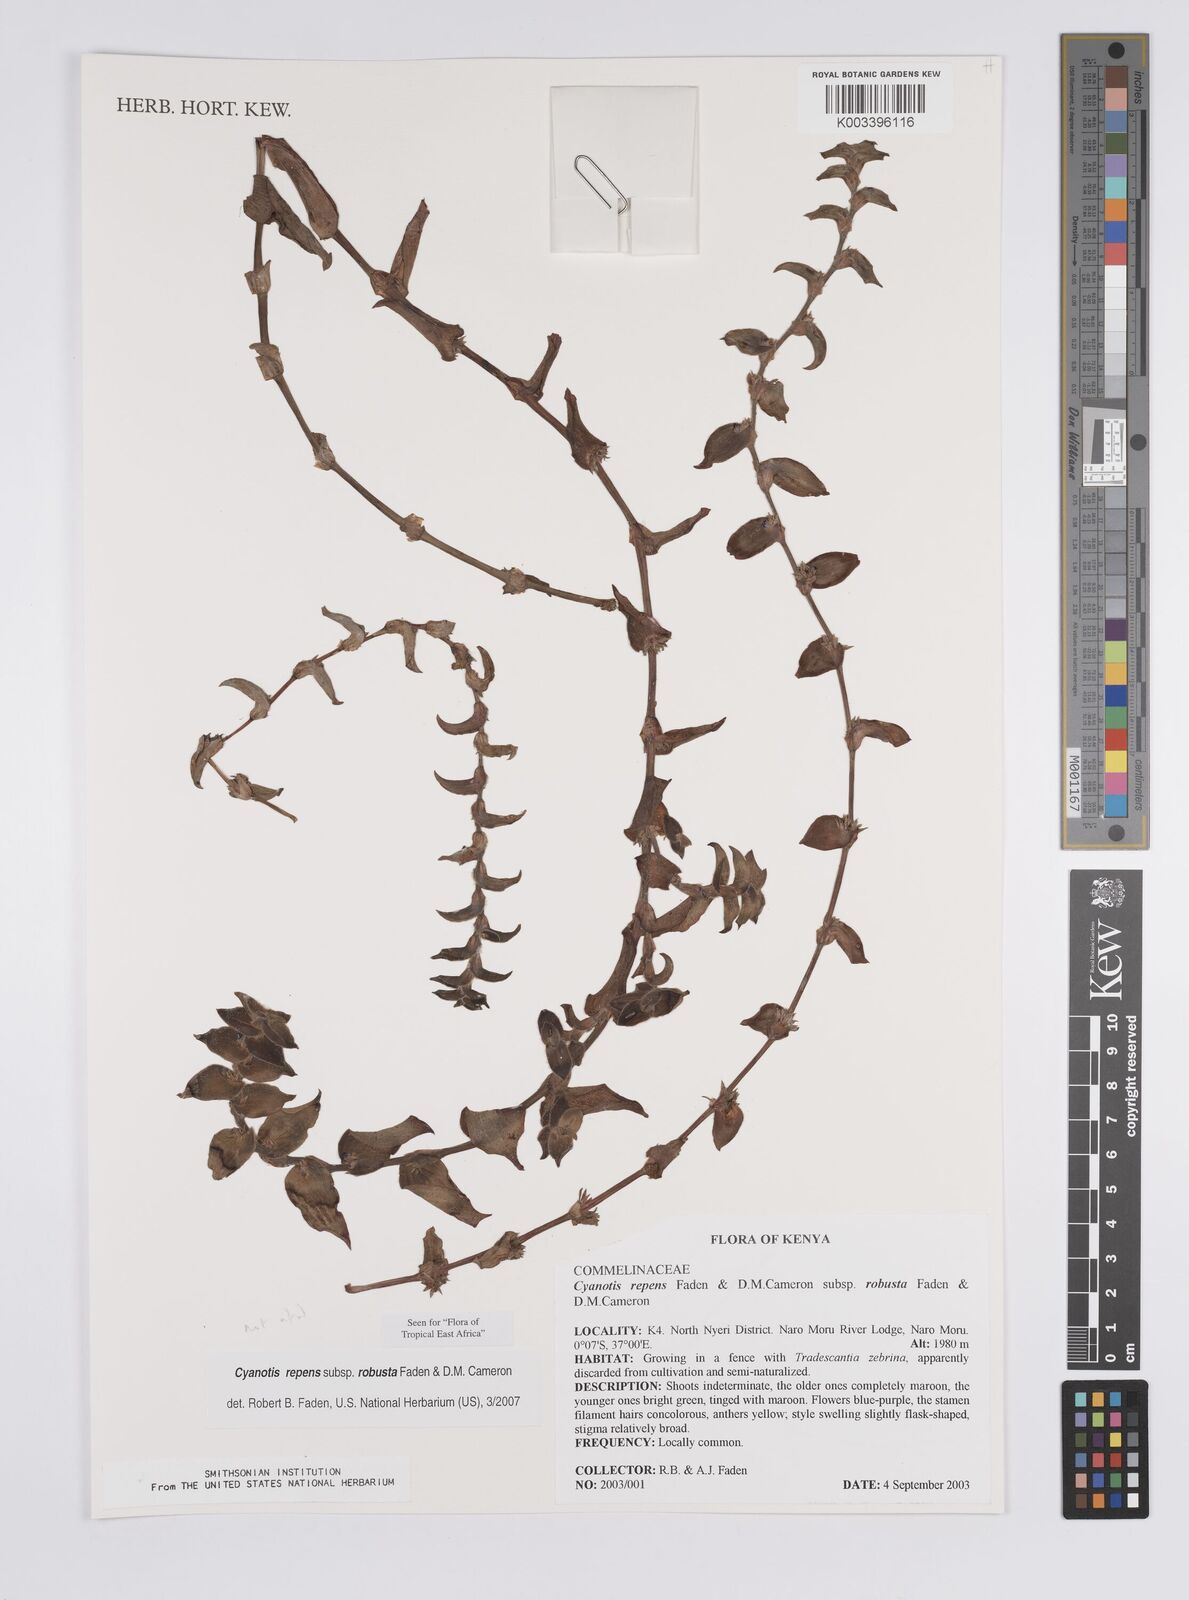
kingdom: Plantae
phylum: Tracheophyta
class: Liliopsida
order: Commelinales
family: Commelinaceae
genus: Cyanotis
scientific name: Cyanotis repens
